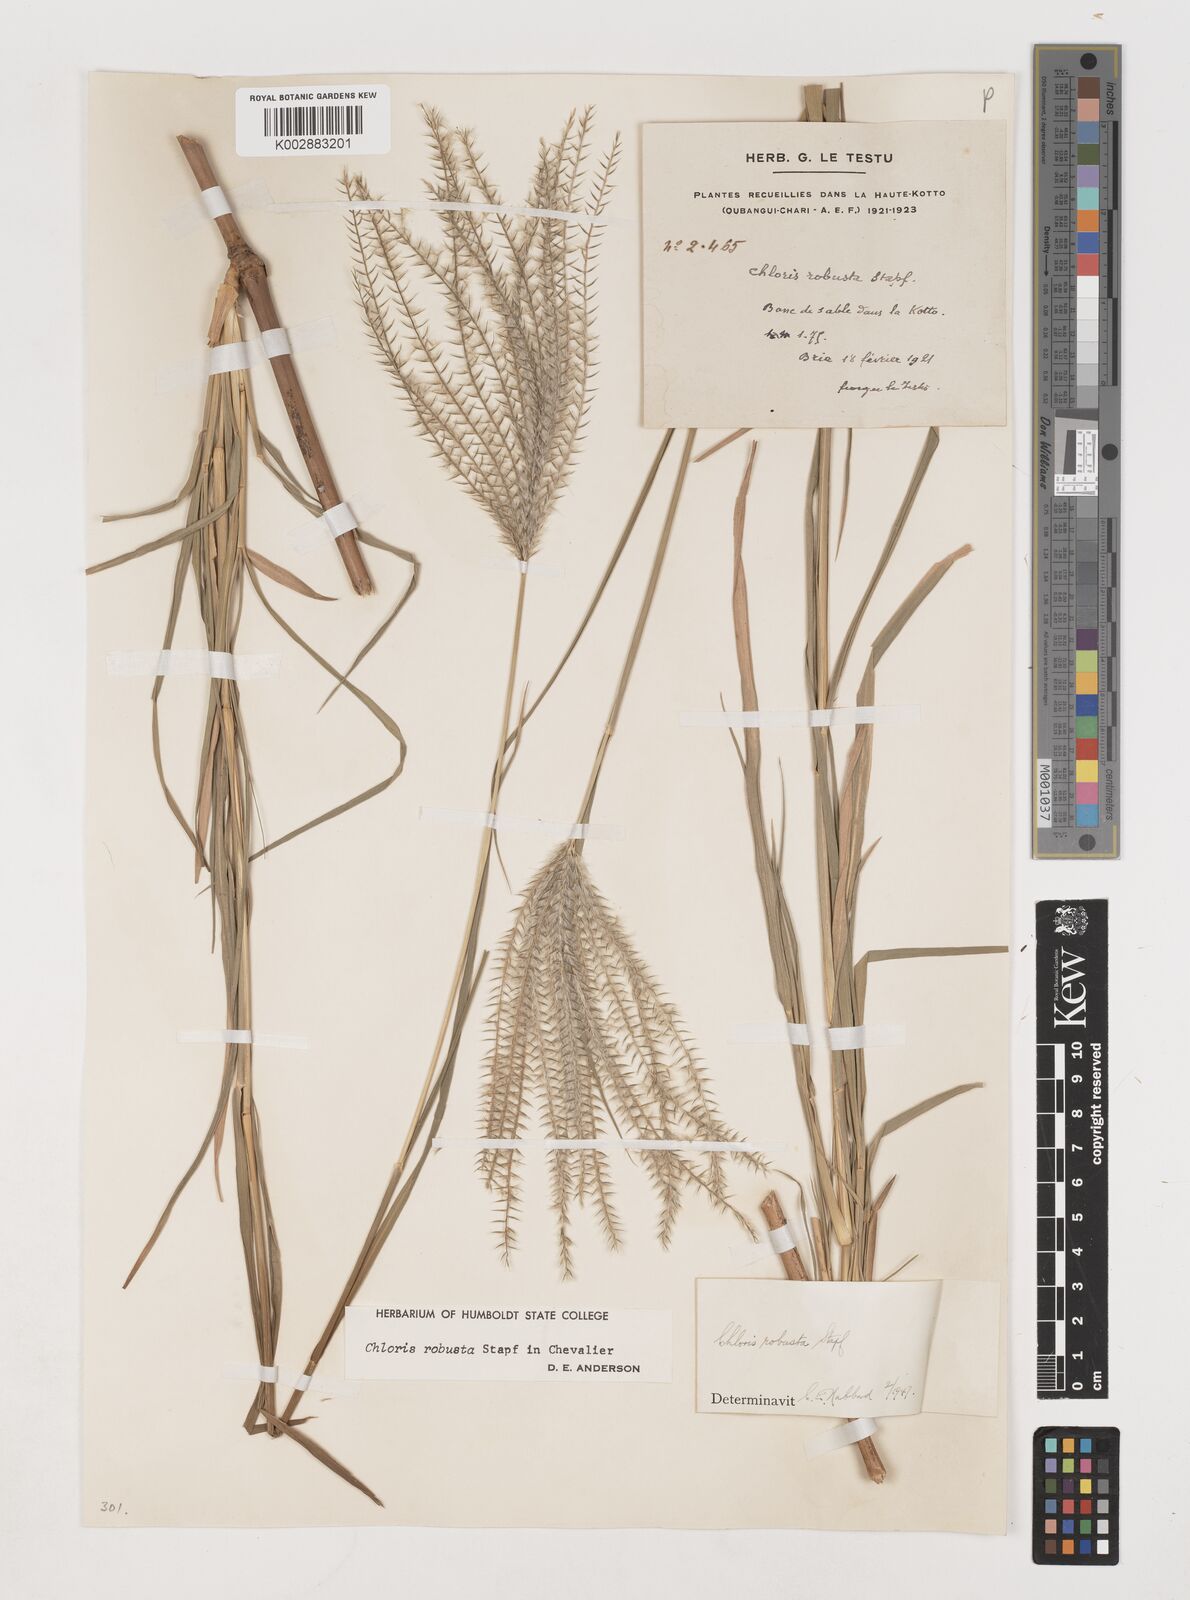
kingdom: Plantae
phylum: Tracheophyta
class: Liliopsida
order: Poales
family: Poaceae
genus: Chloris
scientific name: Chloris robusta
